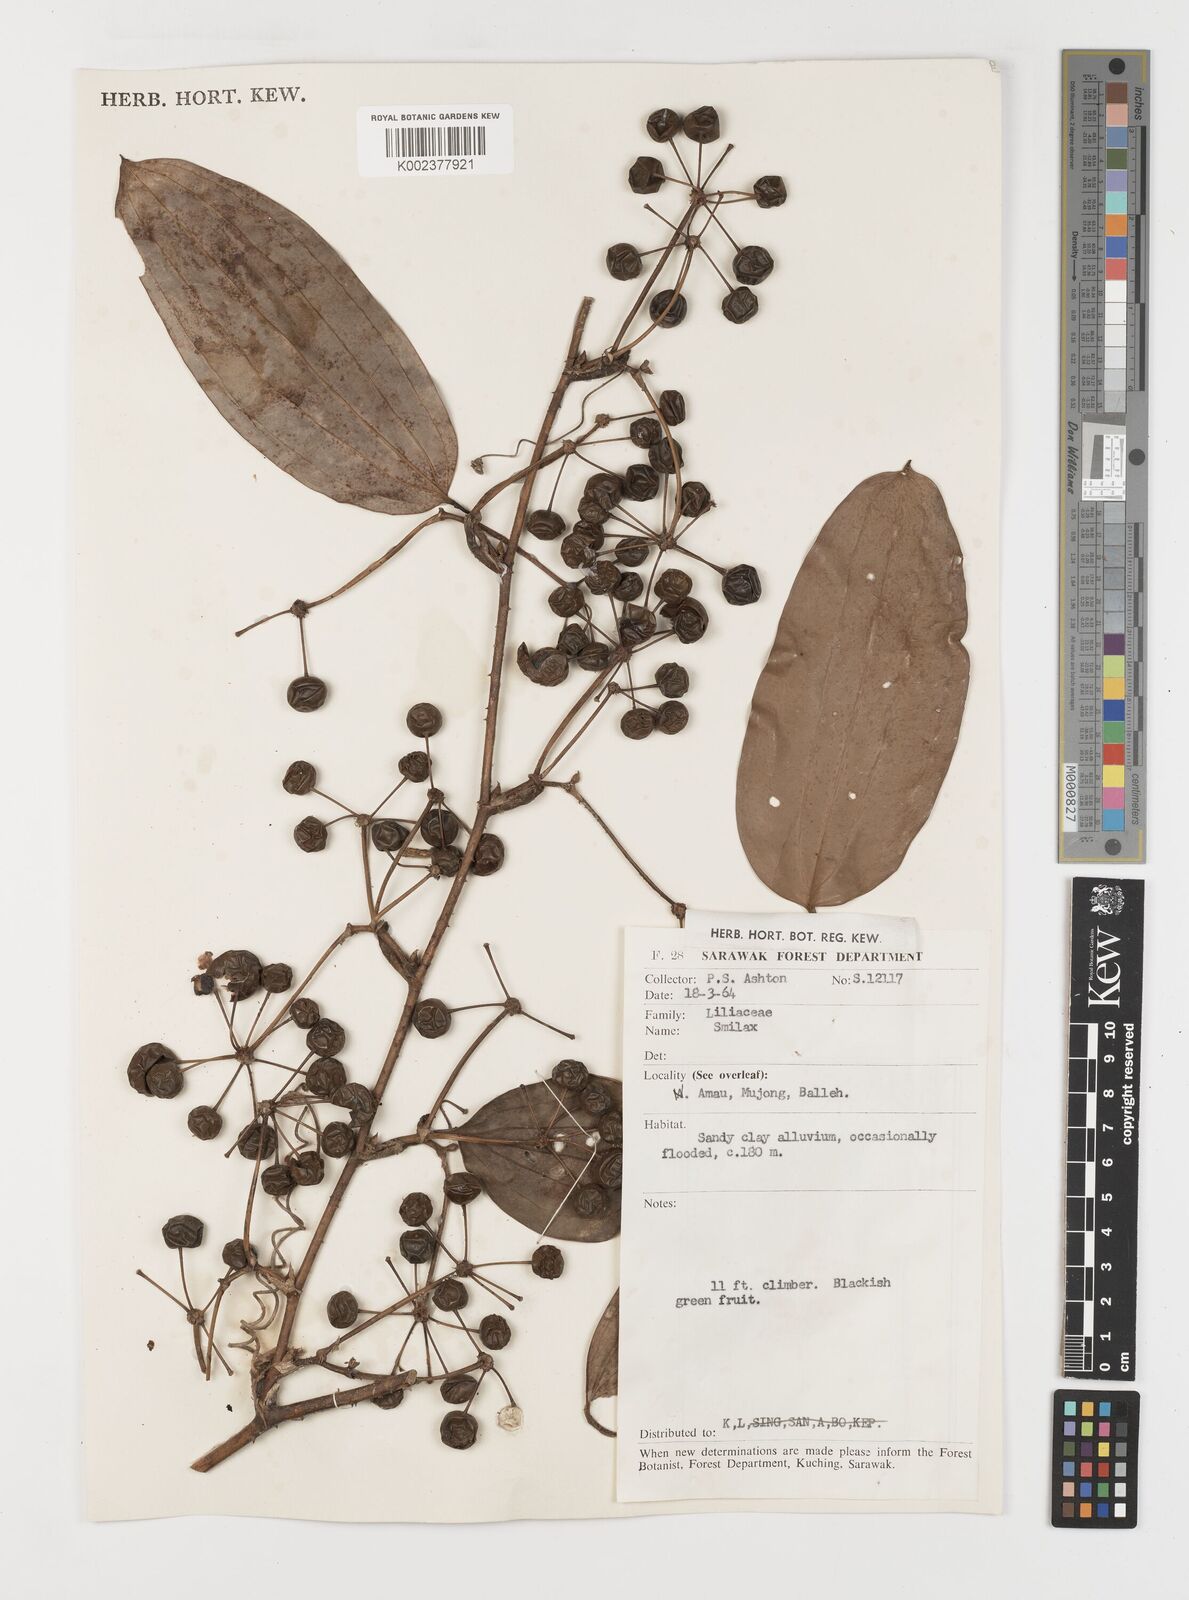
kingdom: Plantae
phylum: Tracheophyta
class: Liliopsida
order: Liliales
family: Smilacaceae
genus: Smilax
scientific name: Smilax
